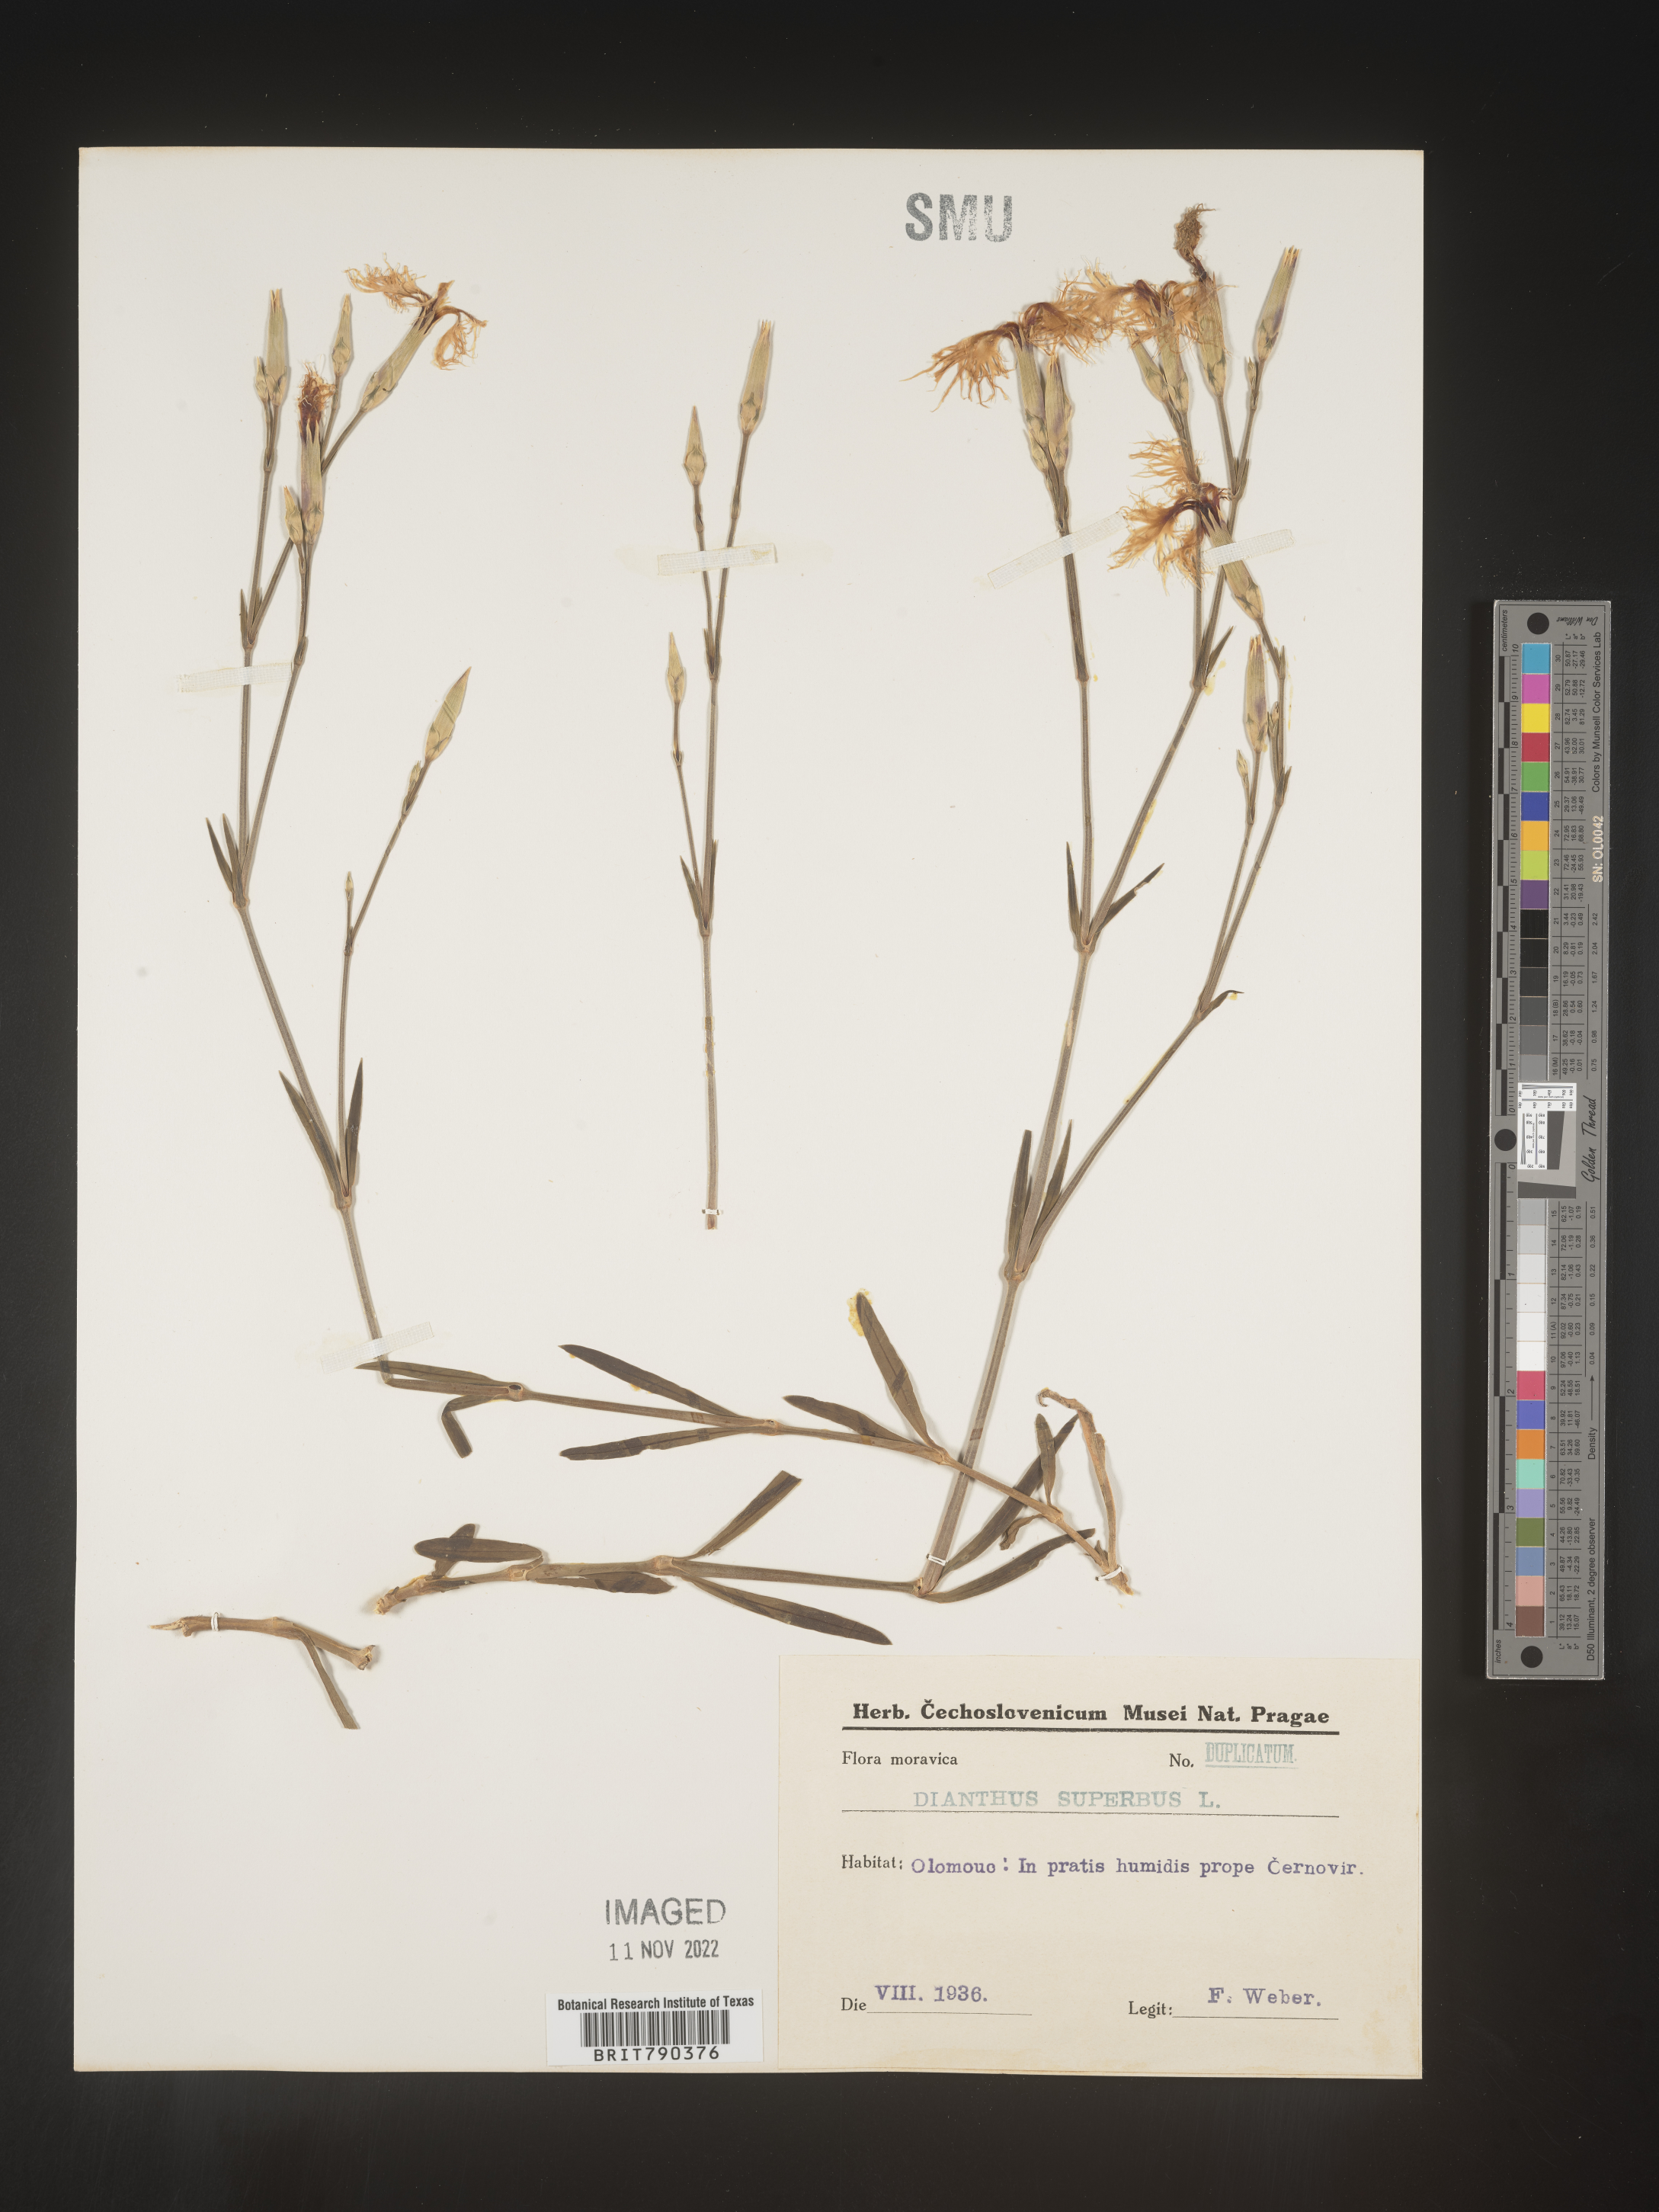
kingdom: Plantae
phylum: Tracheophyta
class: Magnoliopsida
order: Caryophyllales
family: Caryophyllaceae
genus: Dianthus
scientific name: Dianthus superbus
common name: Fringed pink
